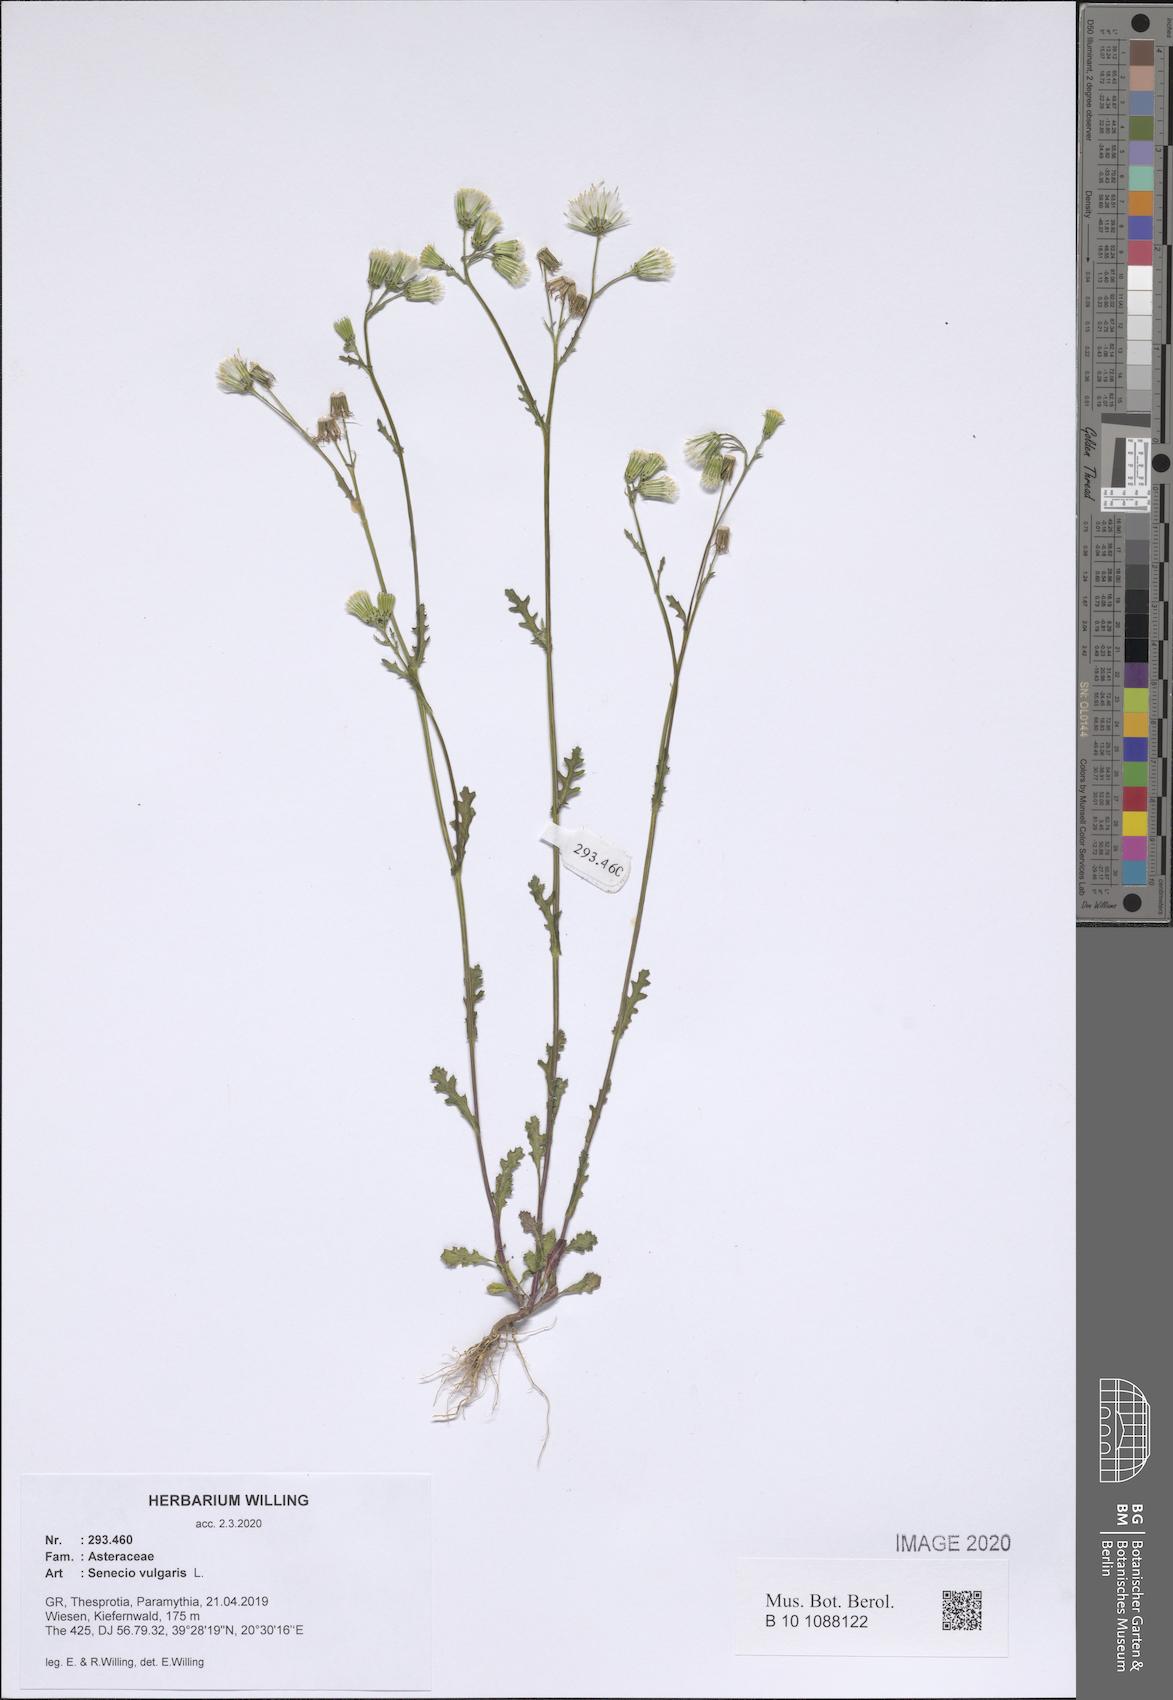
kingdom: Plantae
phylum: Tracheophyta
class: Magnoliopsida
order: Asterales
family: Asteraceae
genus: Senecio
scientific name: Senecio vulgaris
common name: Old-man-in-the-spring
